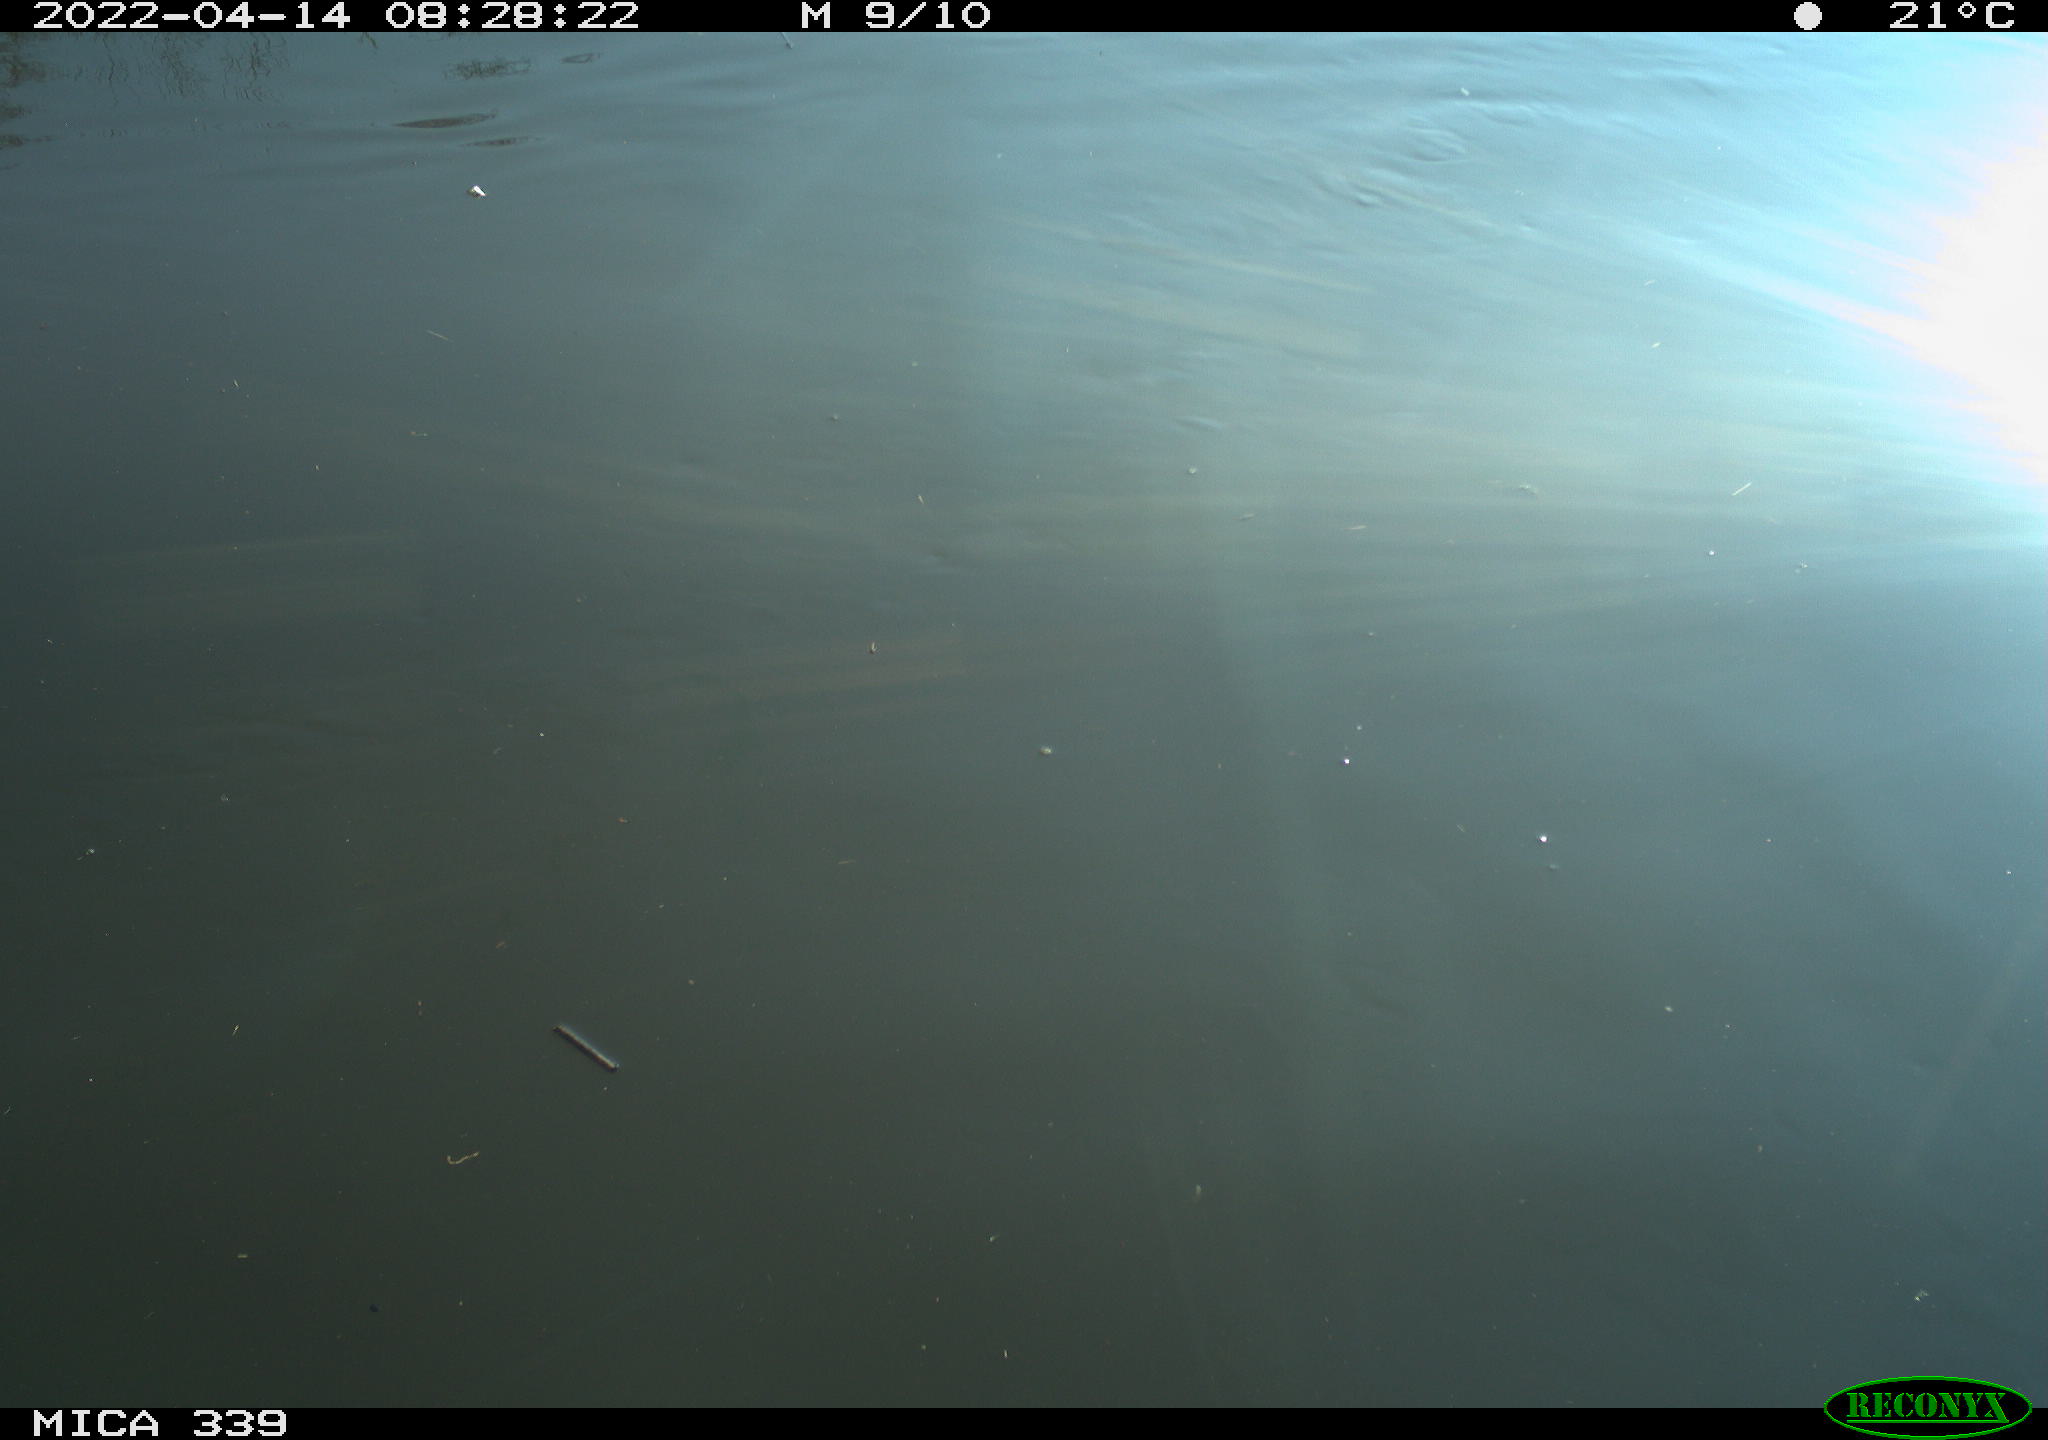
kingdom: Animalia
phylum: Chordata
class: Aves
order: Gruiformes
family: Rallidae
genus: Fulica
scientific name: Fulica atra
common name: Eurasian coot
